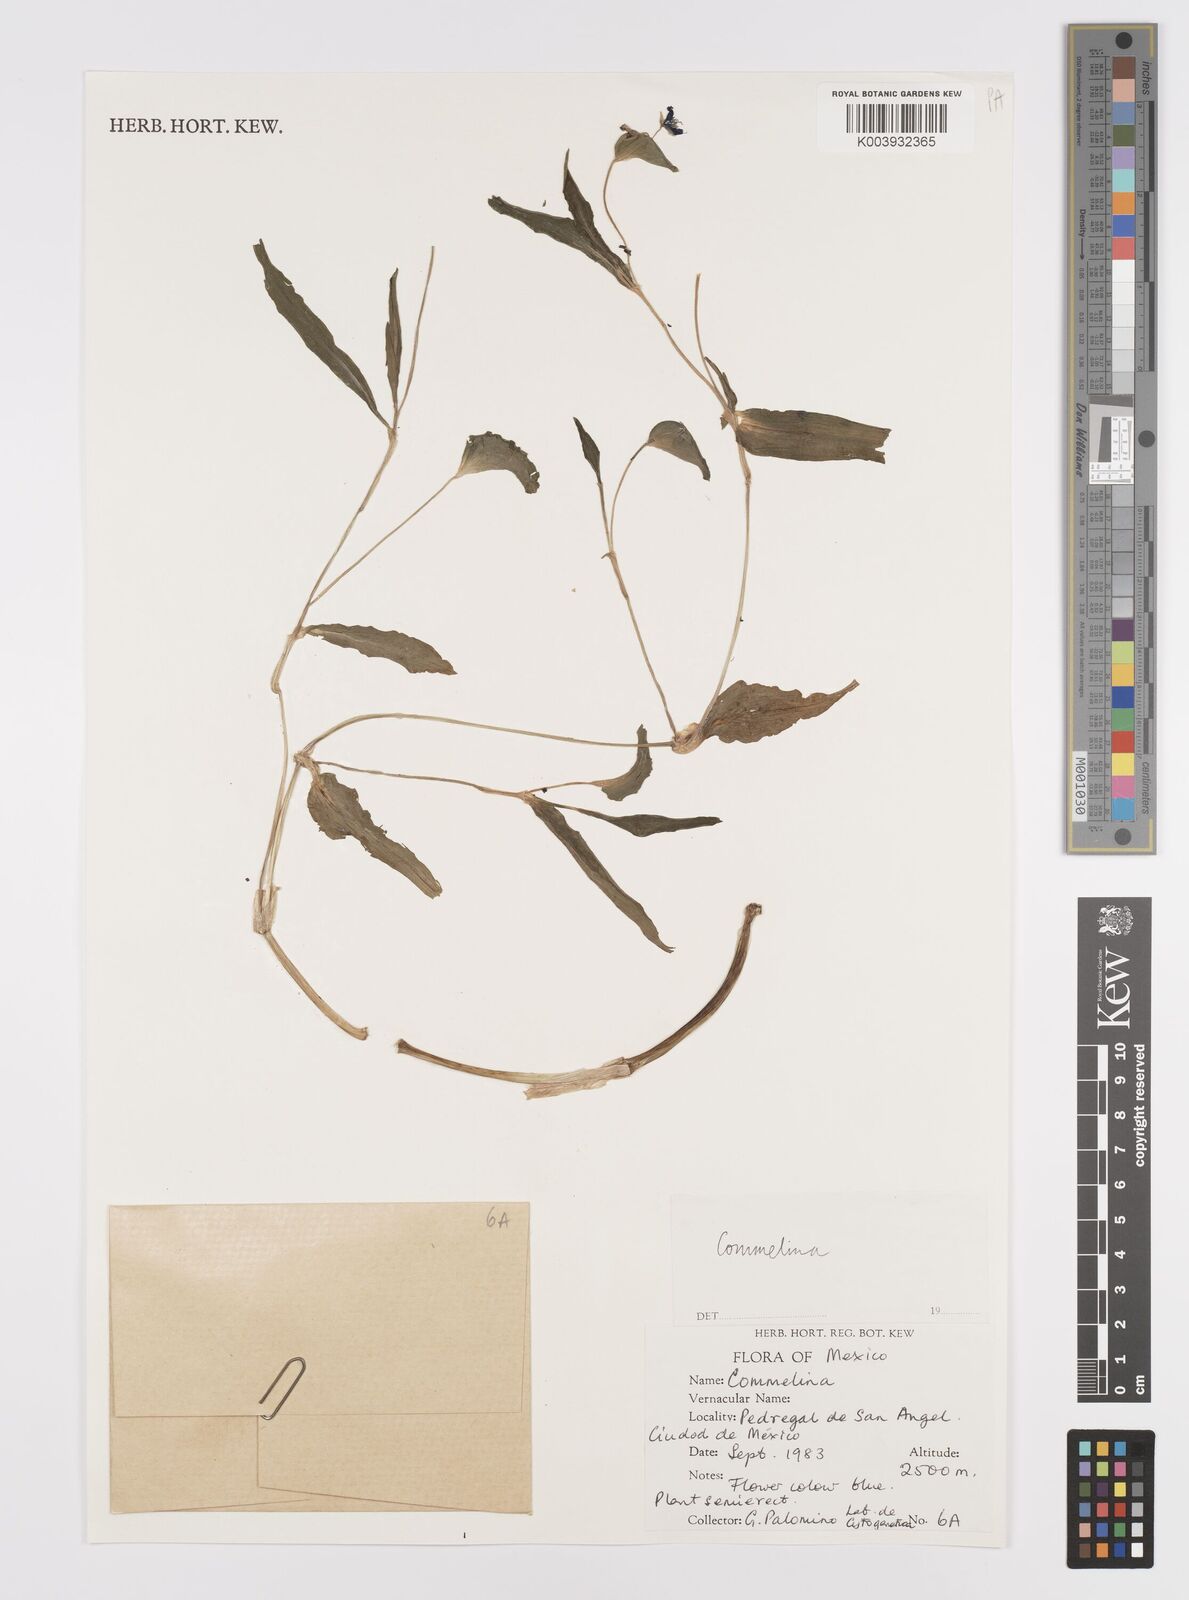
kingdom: Plantae
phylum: Tracheophyta
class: Liliopsida
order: Commelinales
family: Commelinaceae
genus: Commelina
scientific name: Commelina
